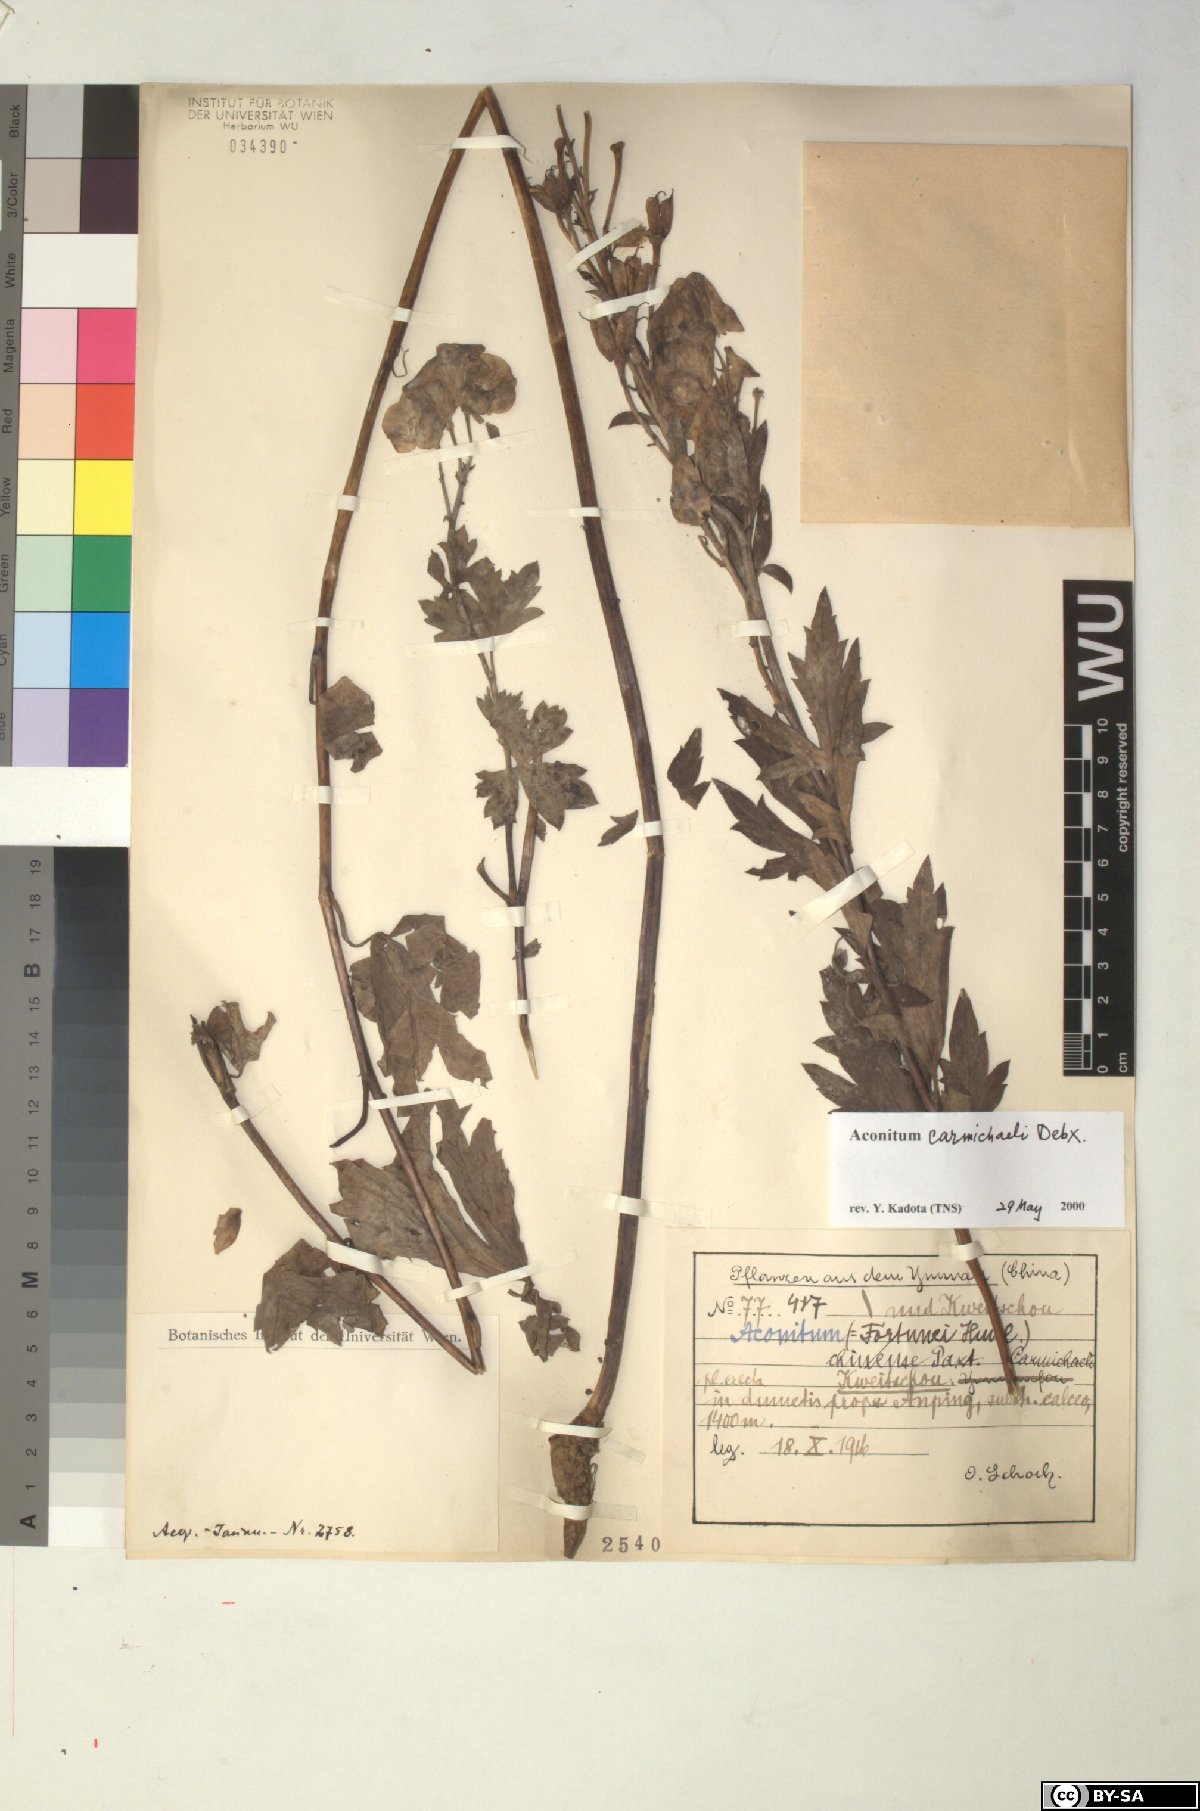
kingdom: Plantae
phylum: Tracheophyta
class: Magnoliopsida
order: Ranunculales
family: Ranunculaceae
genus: Aconitum
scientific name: Aconitum carmichaelii
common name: Carmichael's monkshood
